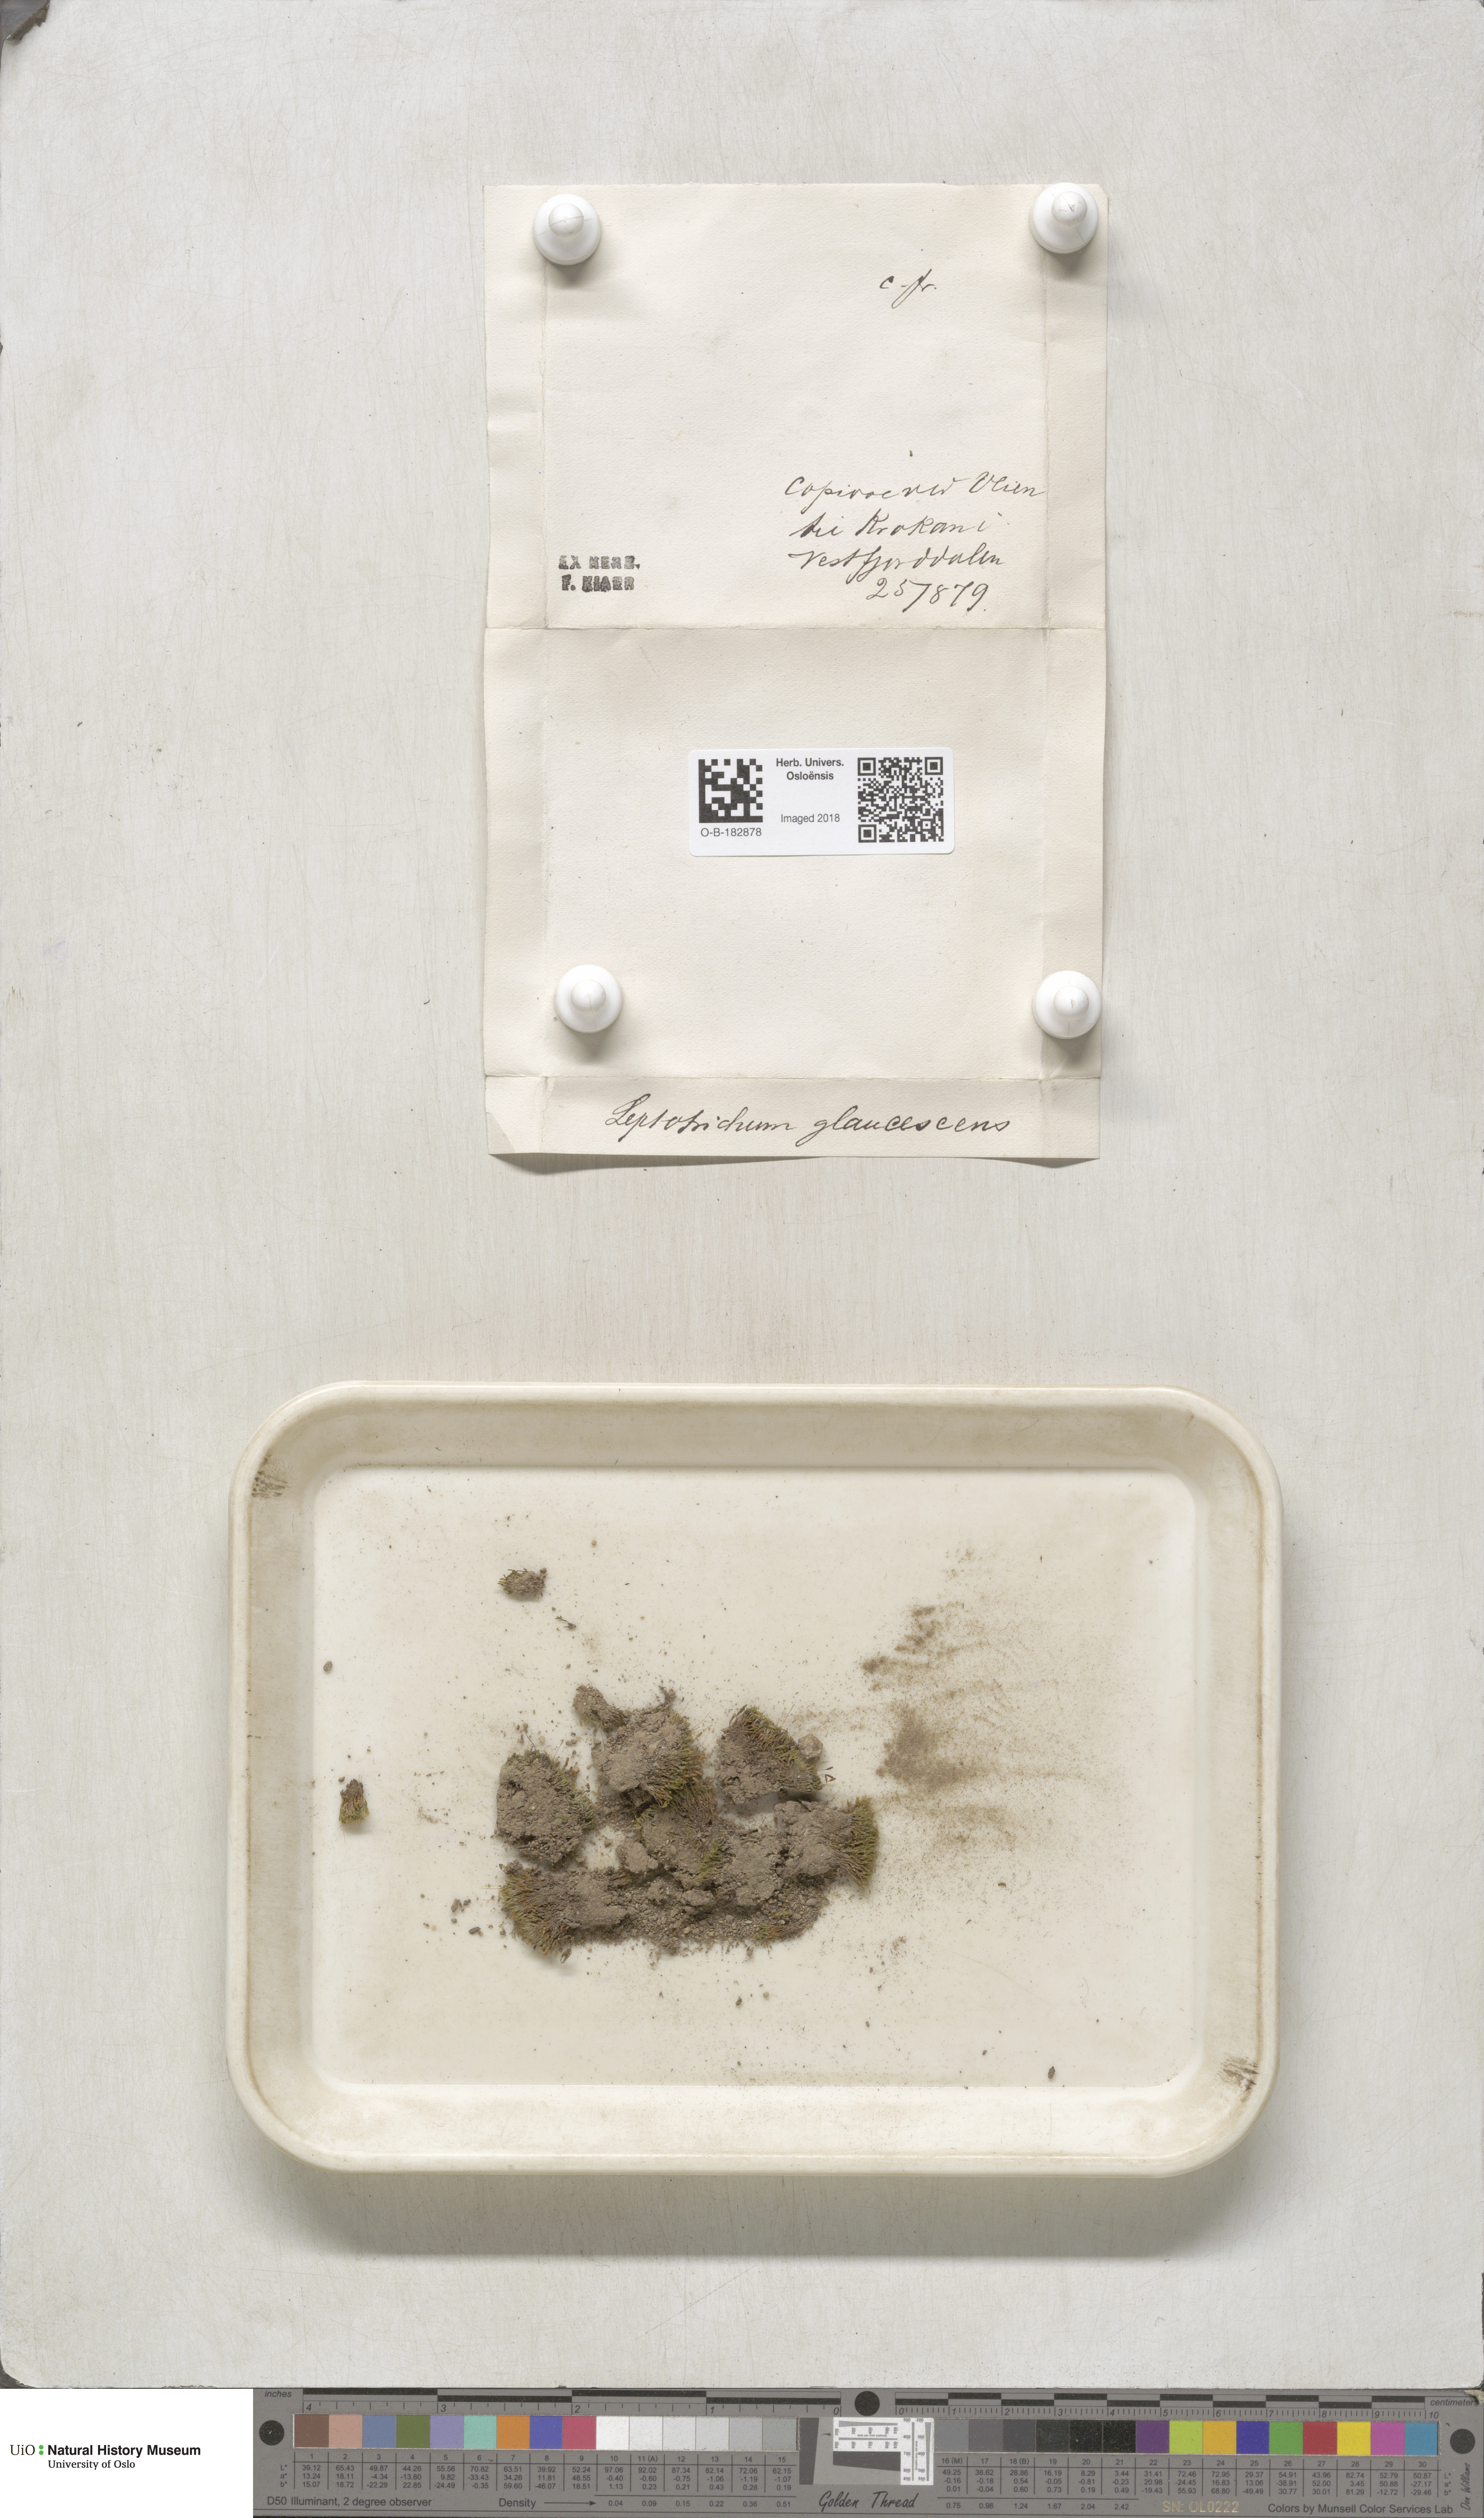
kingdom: Plantae
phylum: Bryophyta
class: Bryopsida
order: Grimmiales
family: Saelaniaceae
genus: Saelania
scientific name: Saelania glaucescens
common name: Blue dew-moss
